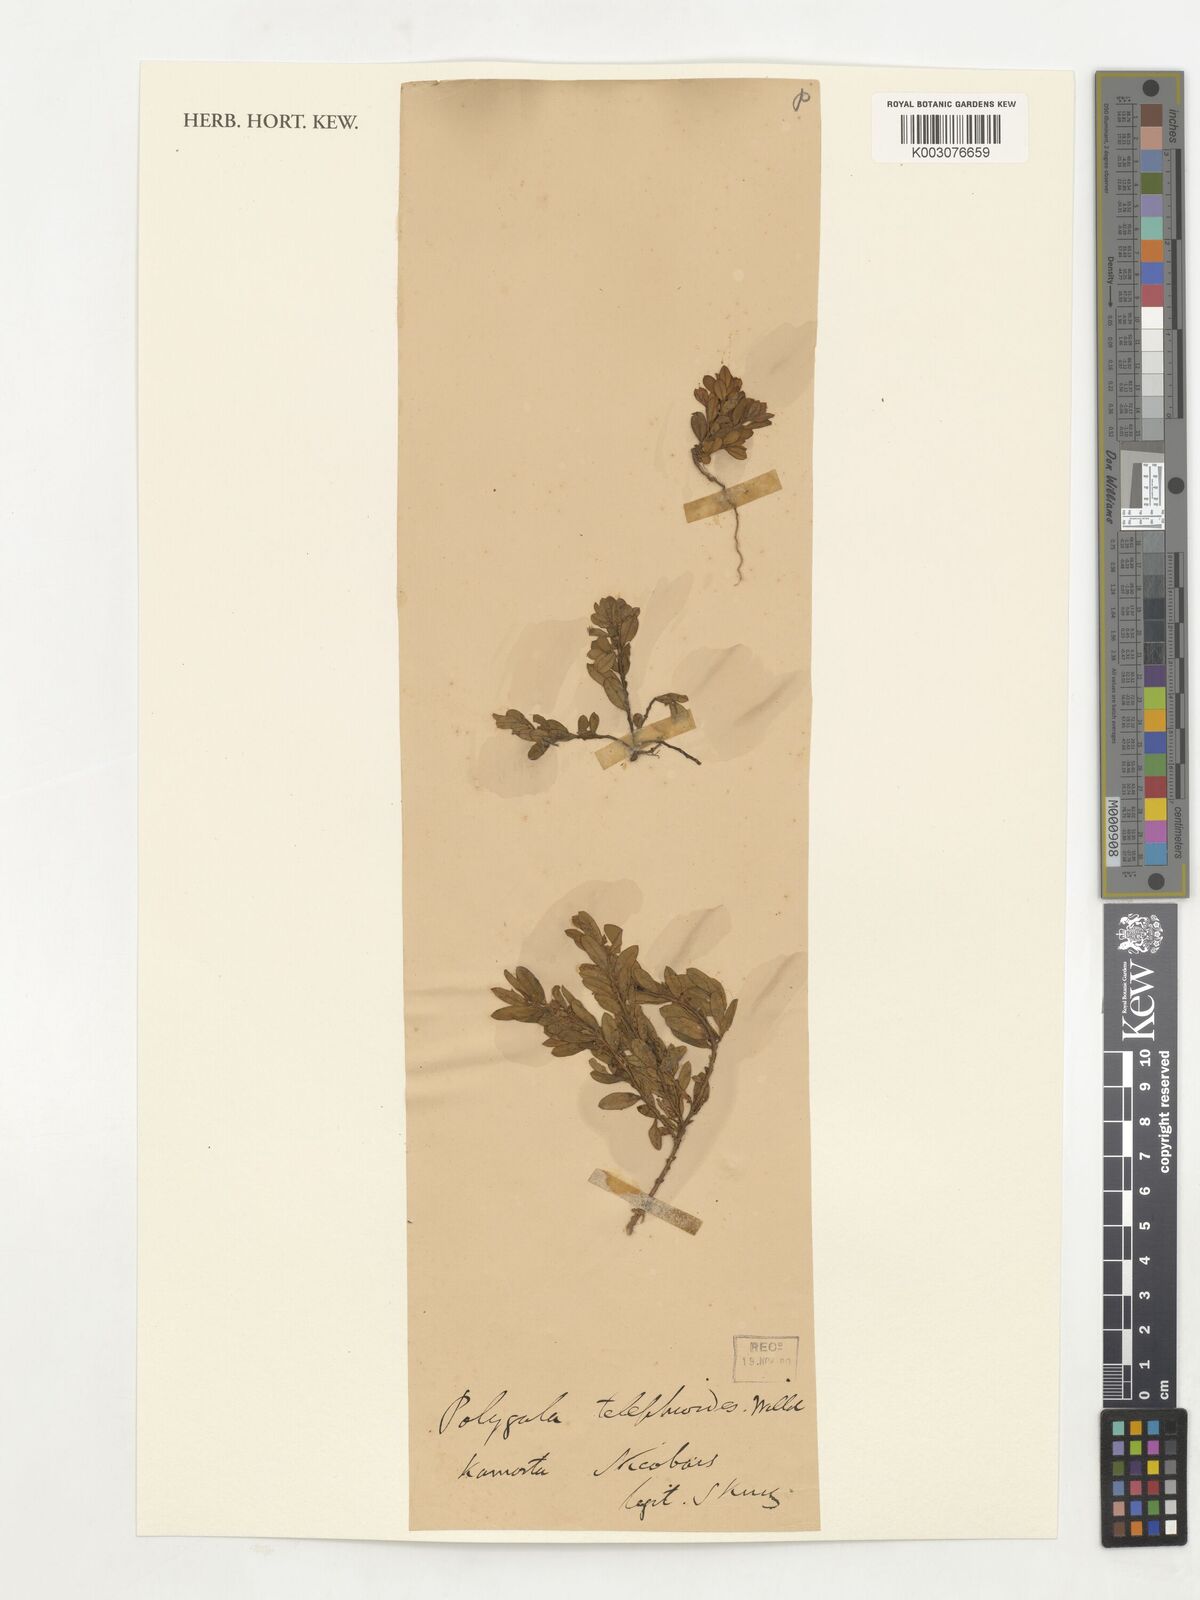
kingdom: Plantae
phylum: Tracheophyta
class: Magnoliopsida
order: Fabales
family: Polygalaceae
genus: Polygala
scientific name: Polygala supina
